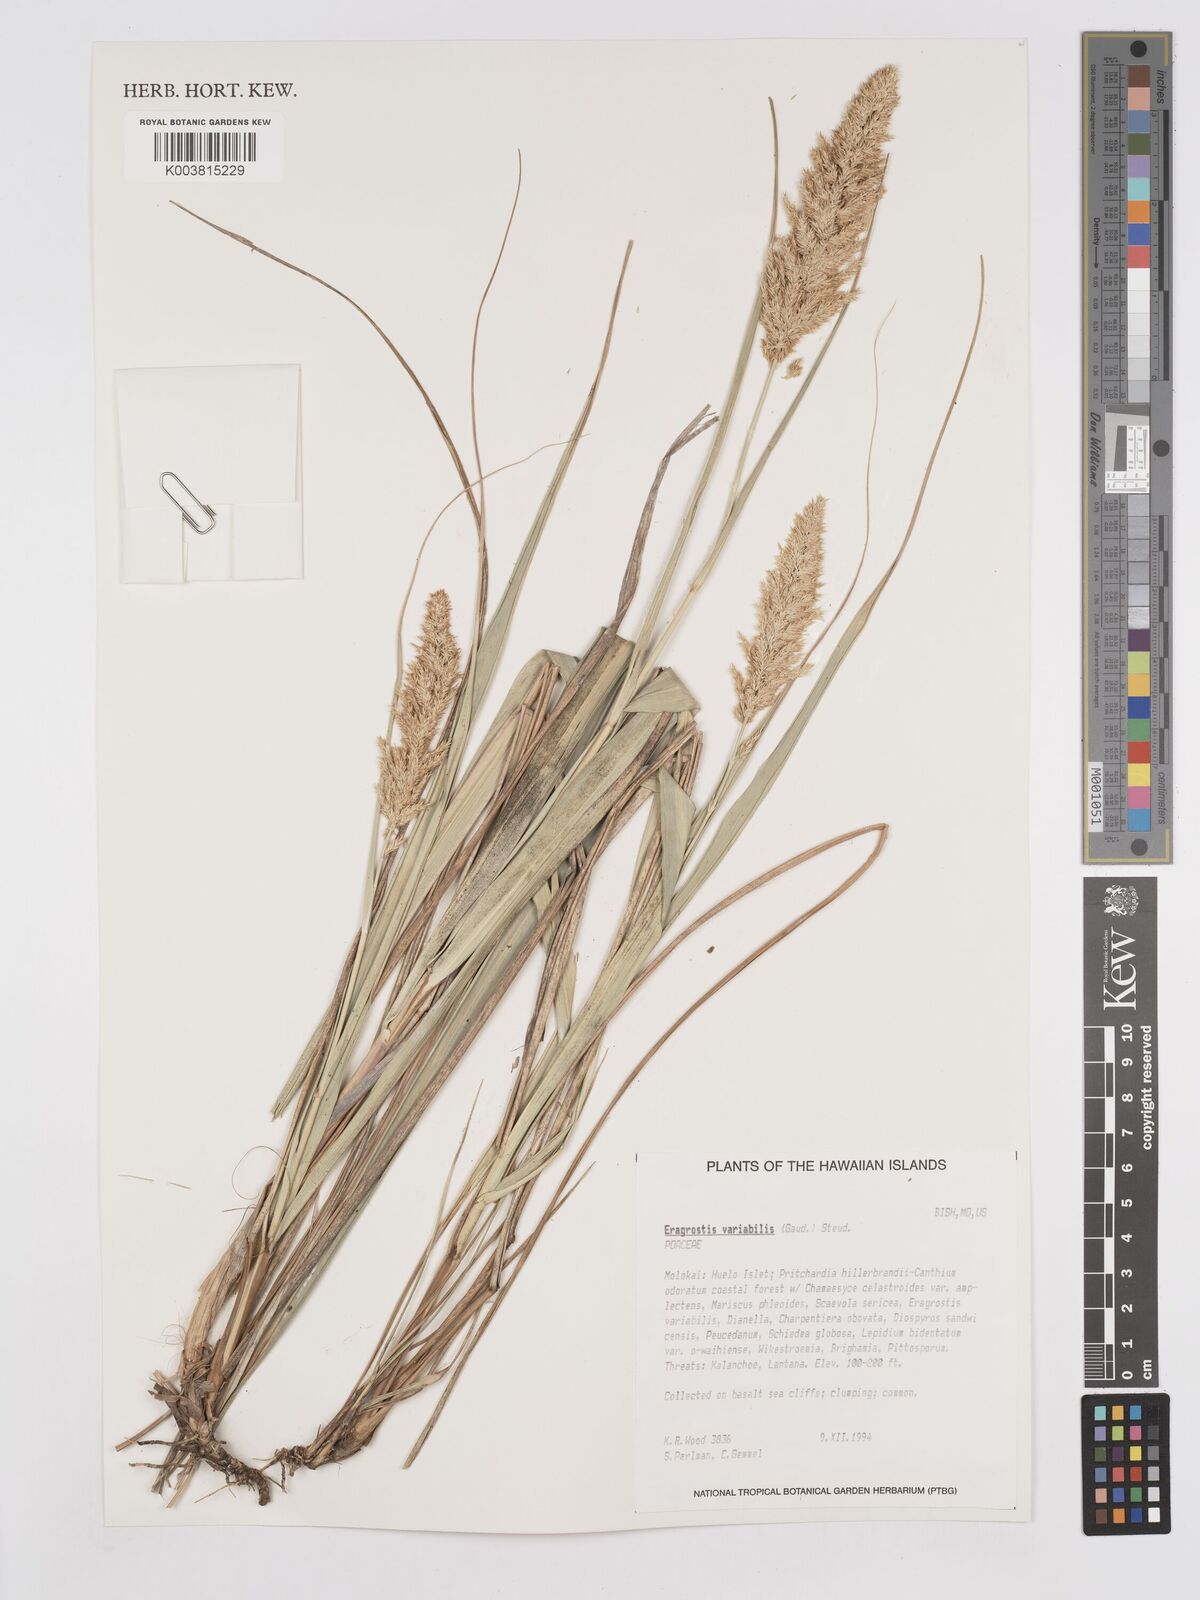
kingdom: Plantae
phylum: Tracheophyta
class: Liliopsida
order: Poales
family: Poaceae
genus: Eragrostis
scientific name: Eragrostis variabilis
